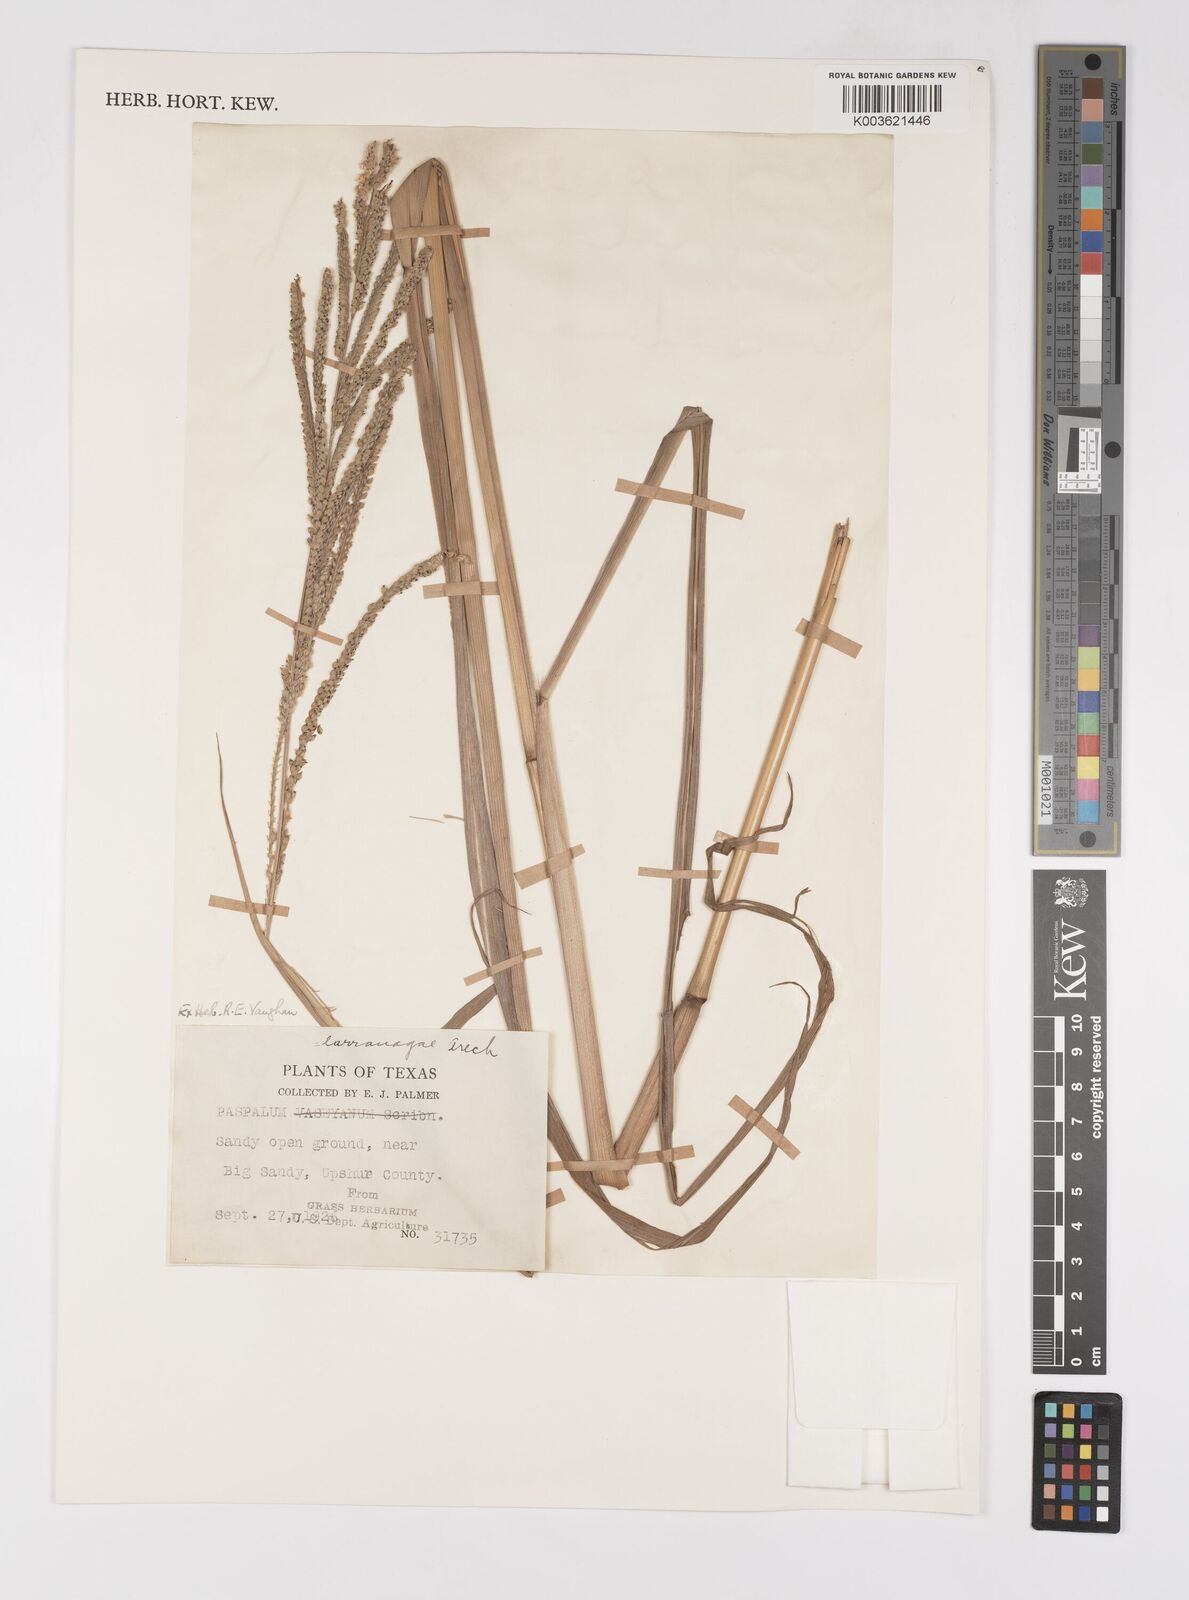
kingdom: Plantae
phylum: Tracheophyta
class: Liliopsida
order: Poales
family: Poaceae
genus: Paspalum
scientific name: Paspalum
